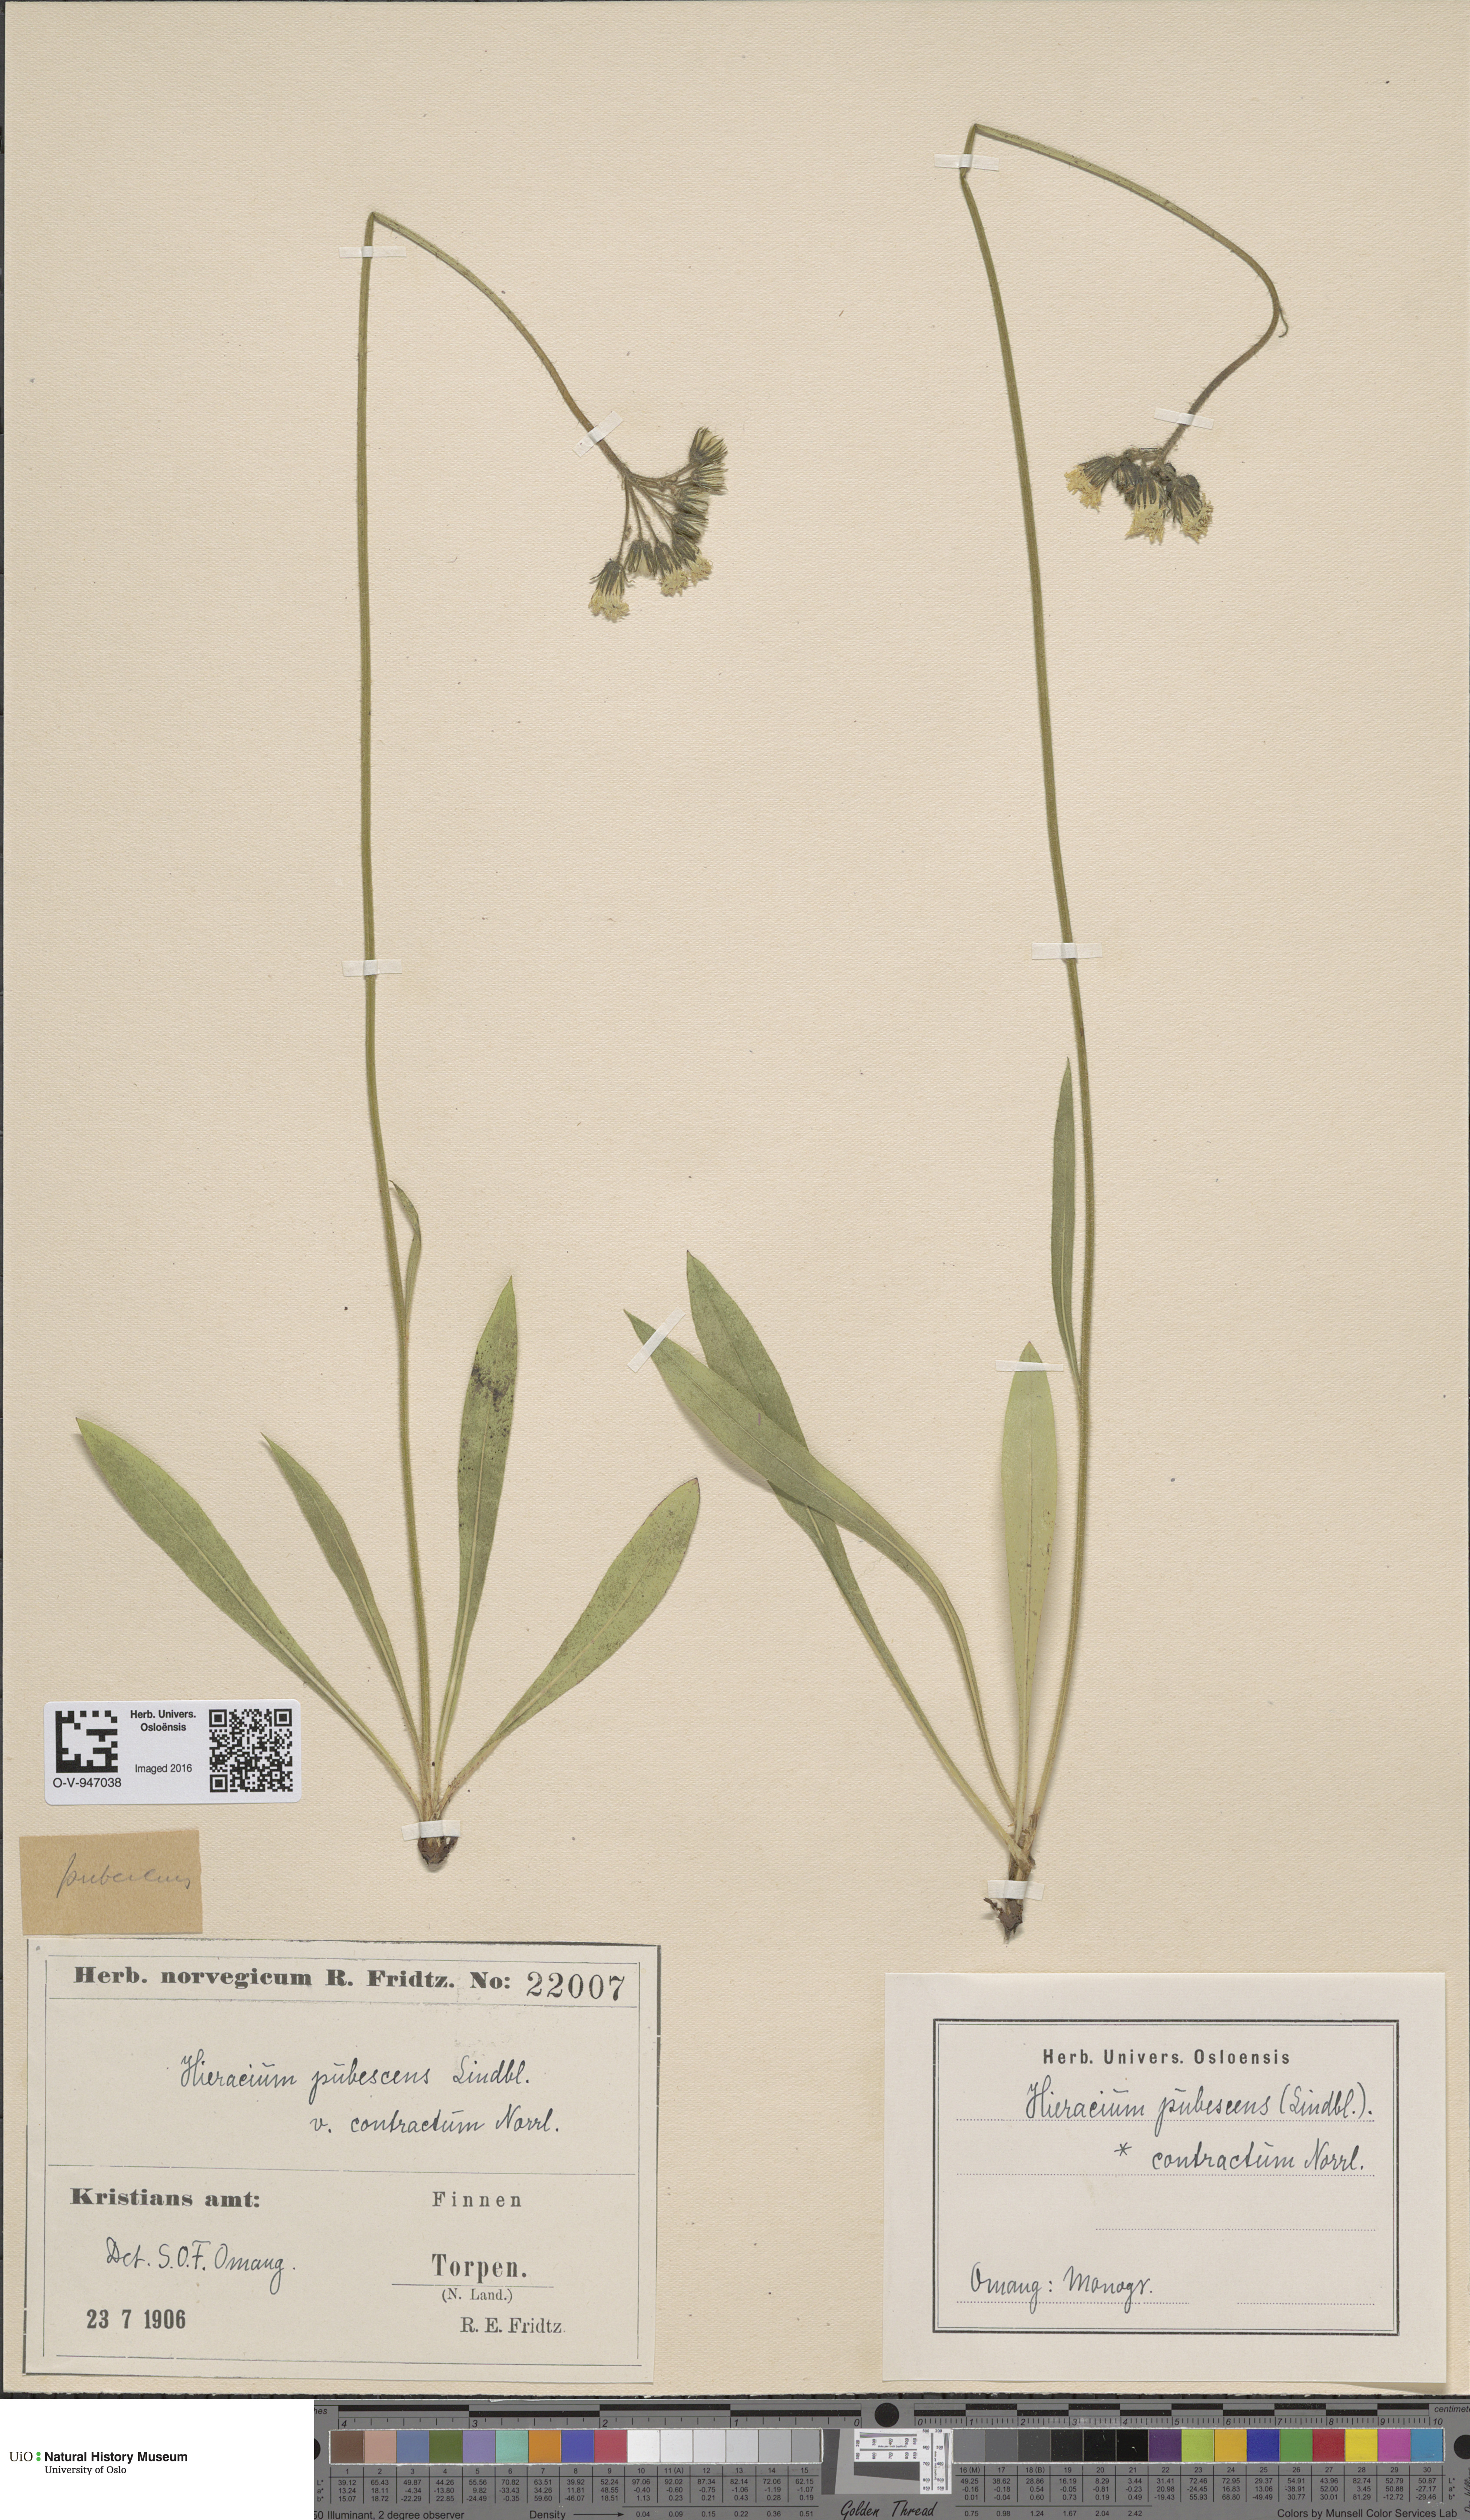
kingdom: Plantae
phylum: Tracheophyta
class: Magnoliopsida
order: Asterales
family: Asteraceae
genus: Pilosella
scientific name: Pilosella cymosa
